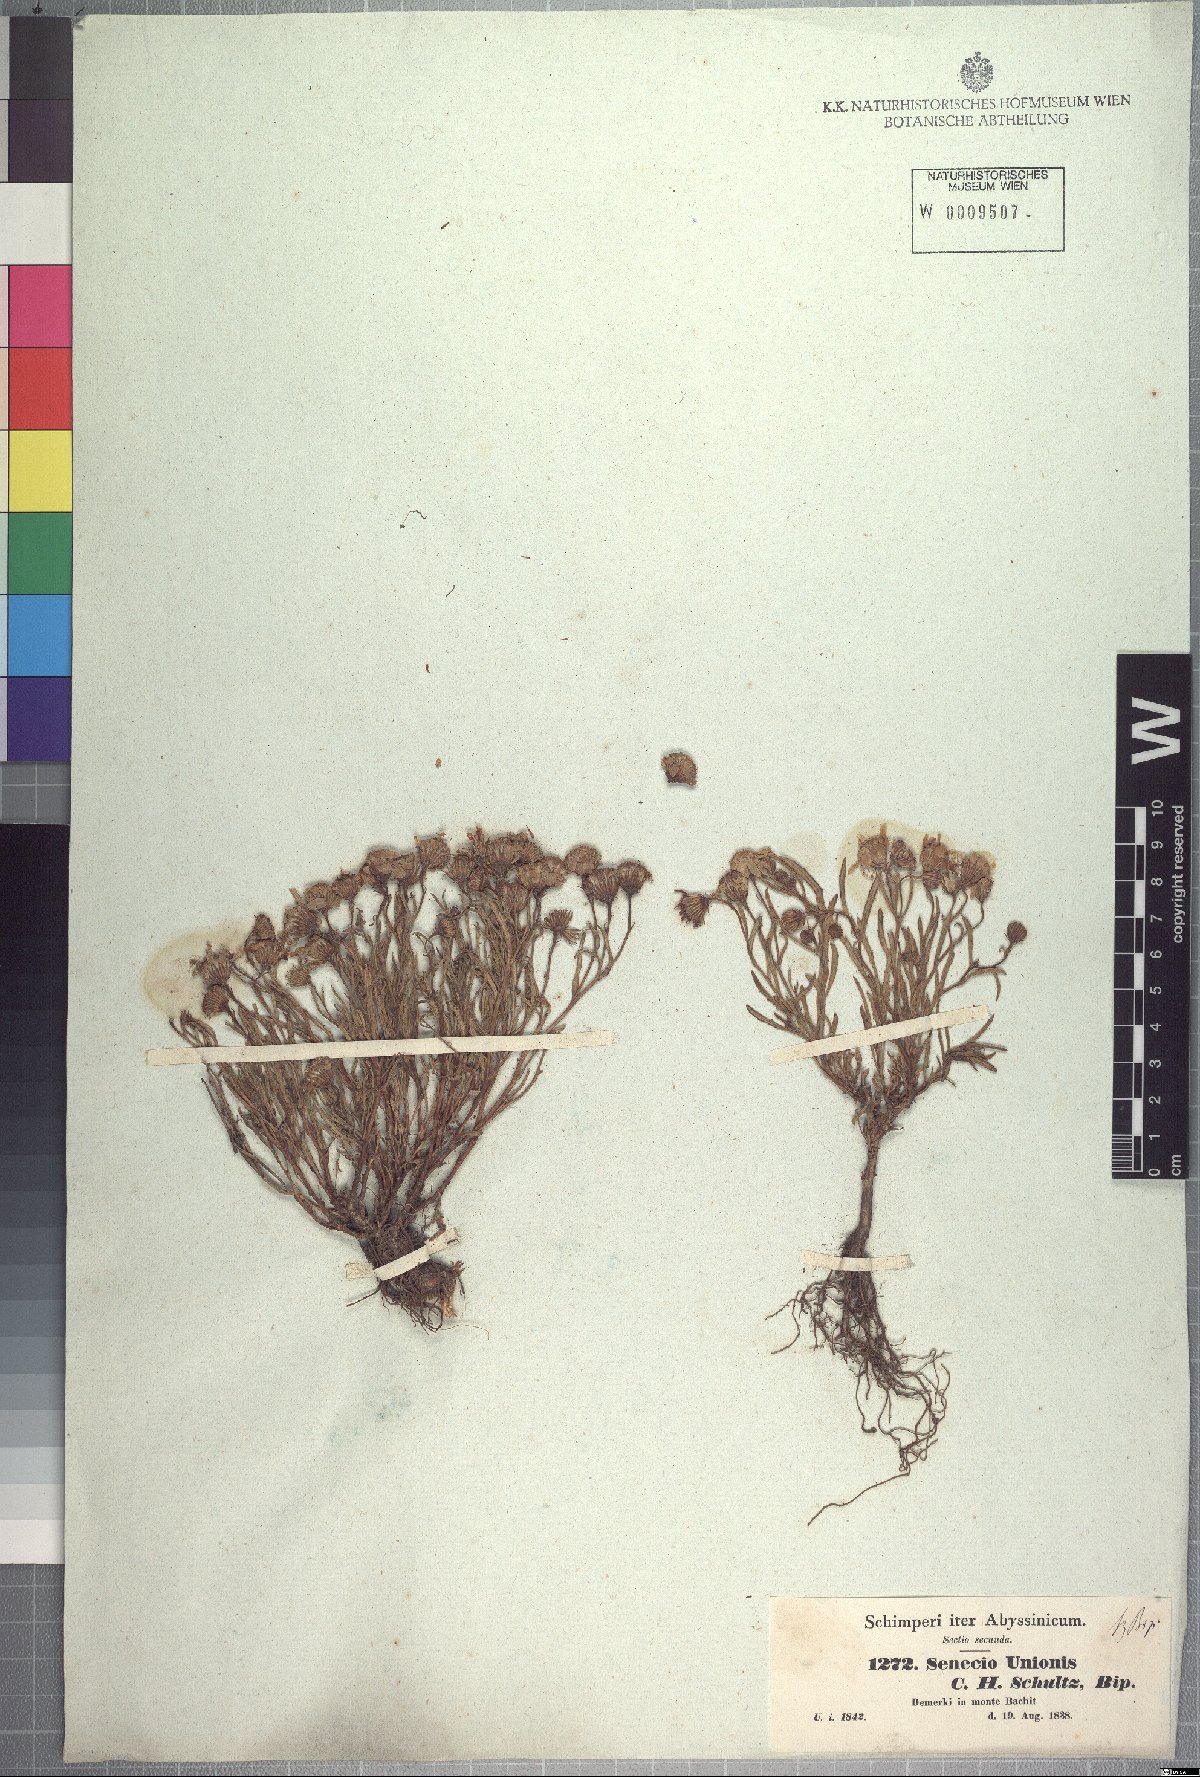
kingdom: Plantae
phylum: Tracheophyta
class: Magnoliopsida
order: Asterales
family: Asteraceae
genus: Senecio
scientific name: Senecio unionis
